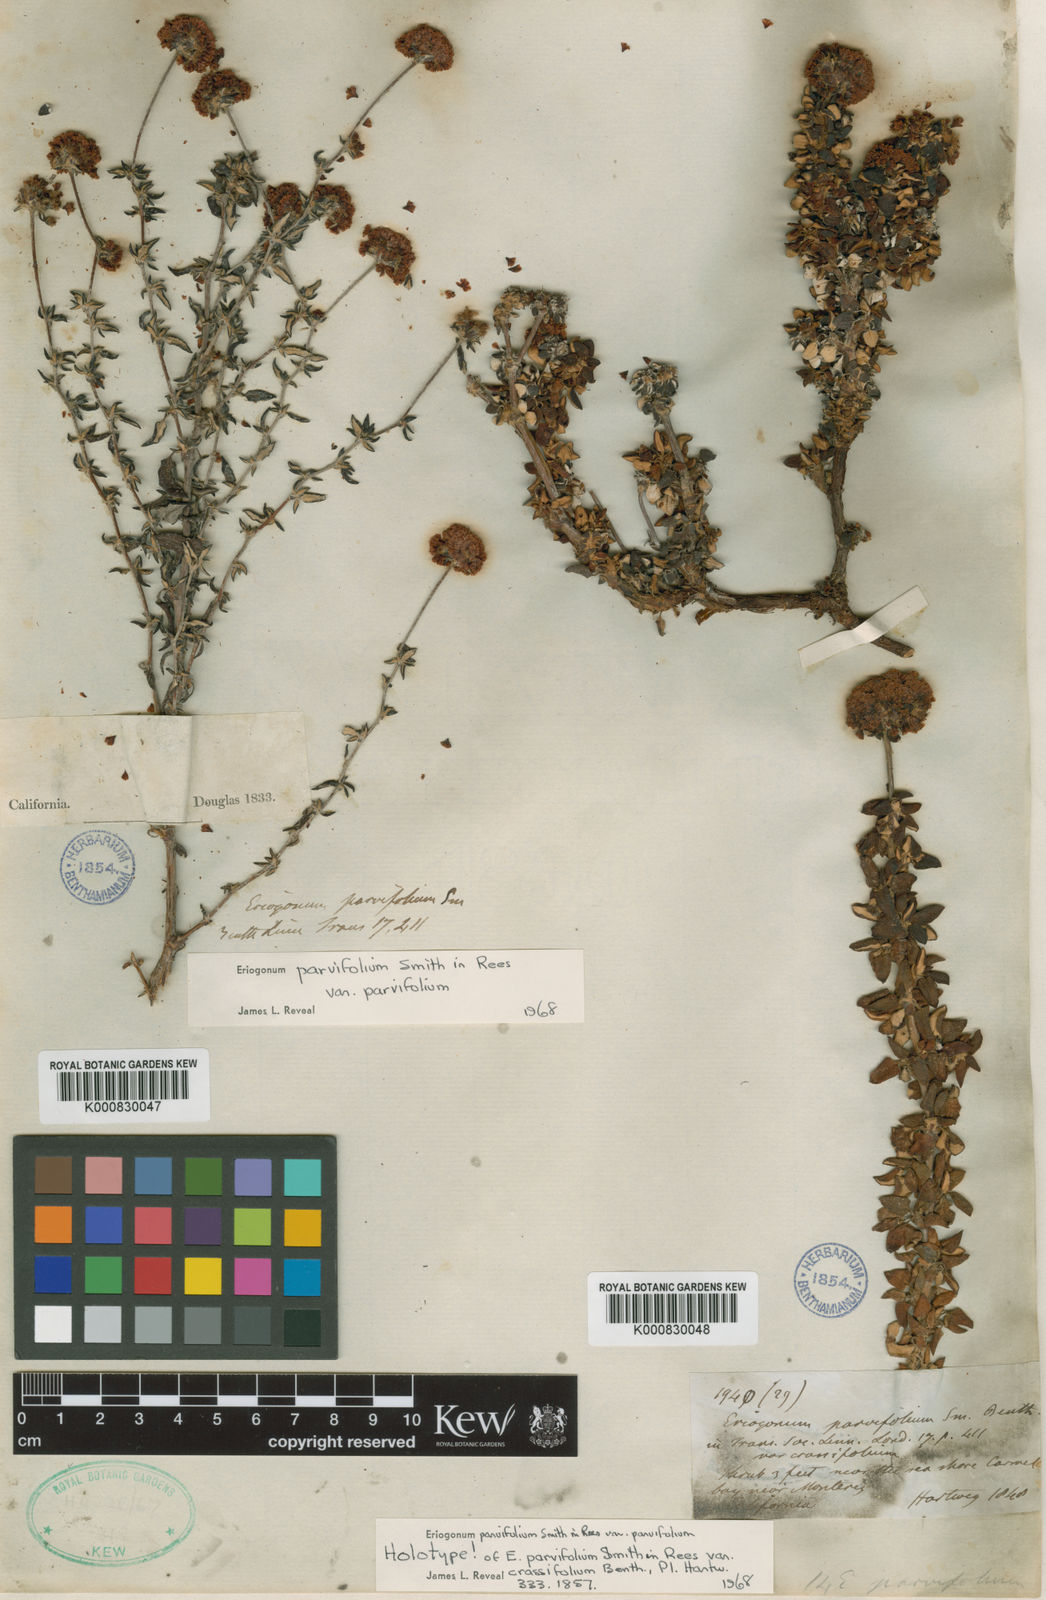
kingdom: Plantae
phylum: Tracheophyta
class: Magnoliopsida
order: Caryophyllales
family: Polygonaceae
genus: Eriogonum
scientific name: Eriogonum parvifolium
